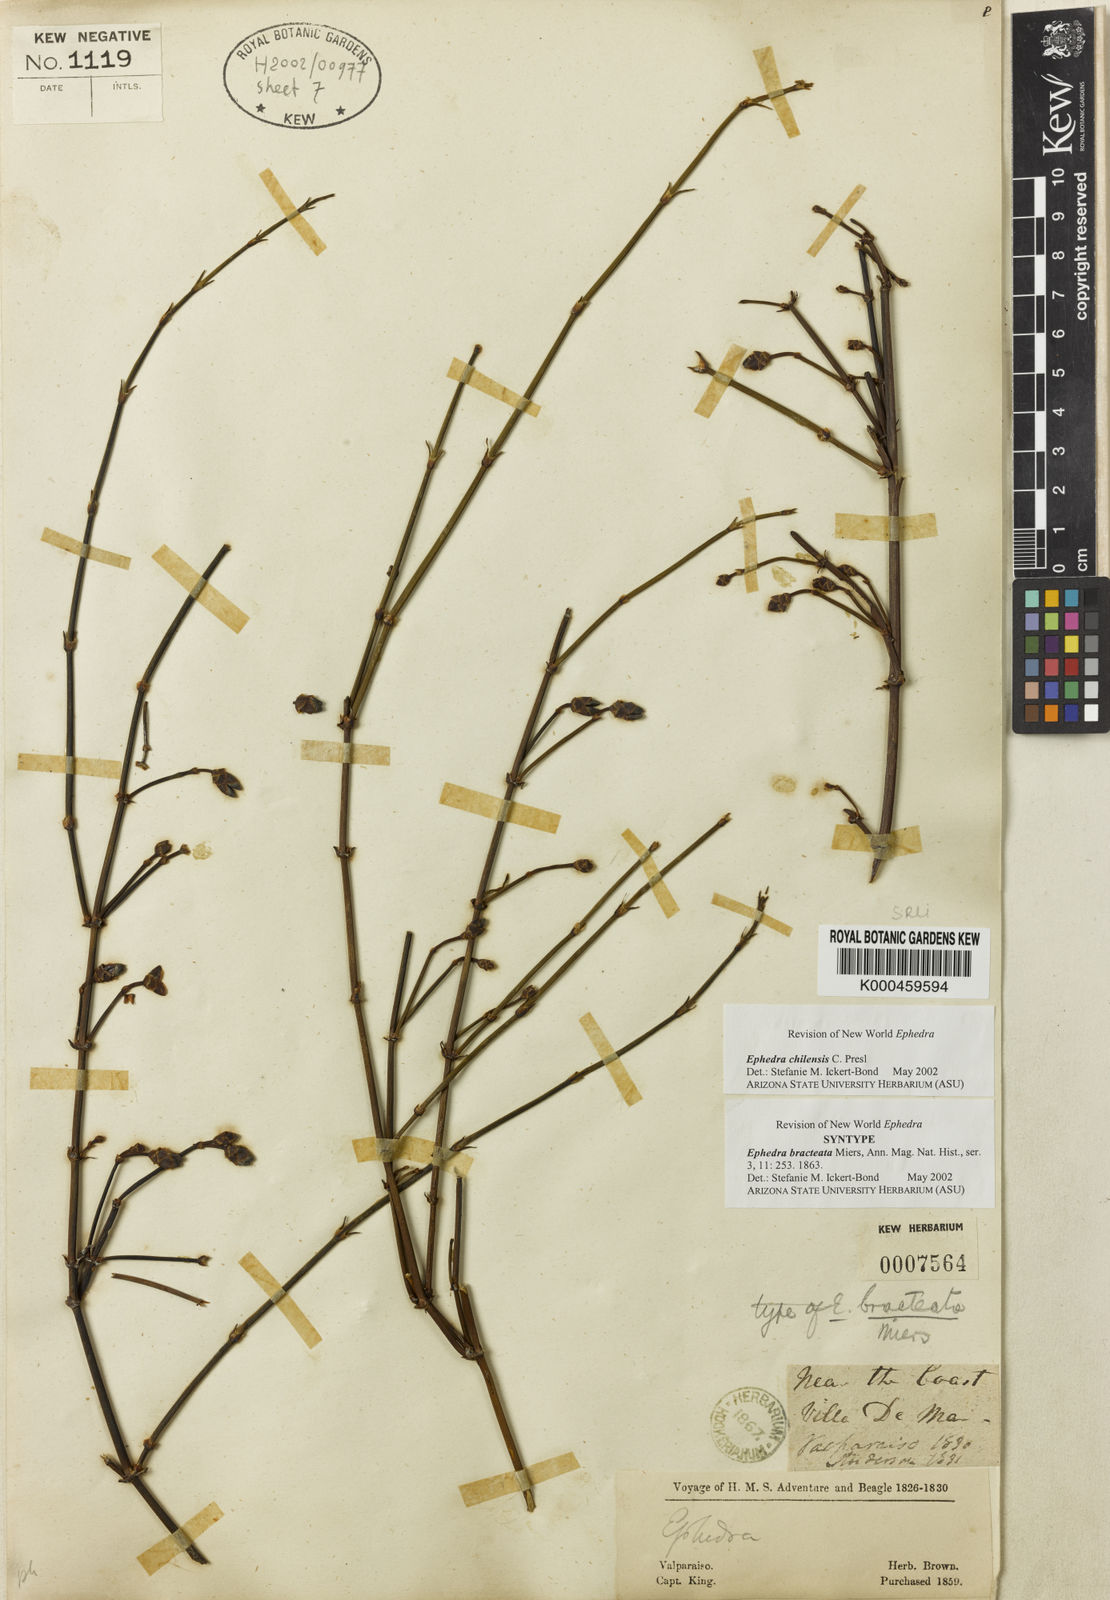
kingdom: Plantae
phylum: Tracheophyta
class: Gnetopsida
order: Ephedrales
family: Ephedraceae
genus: Ephedra
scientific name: Ephedra americana
